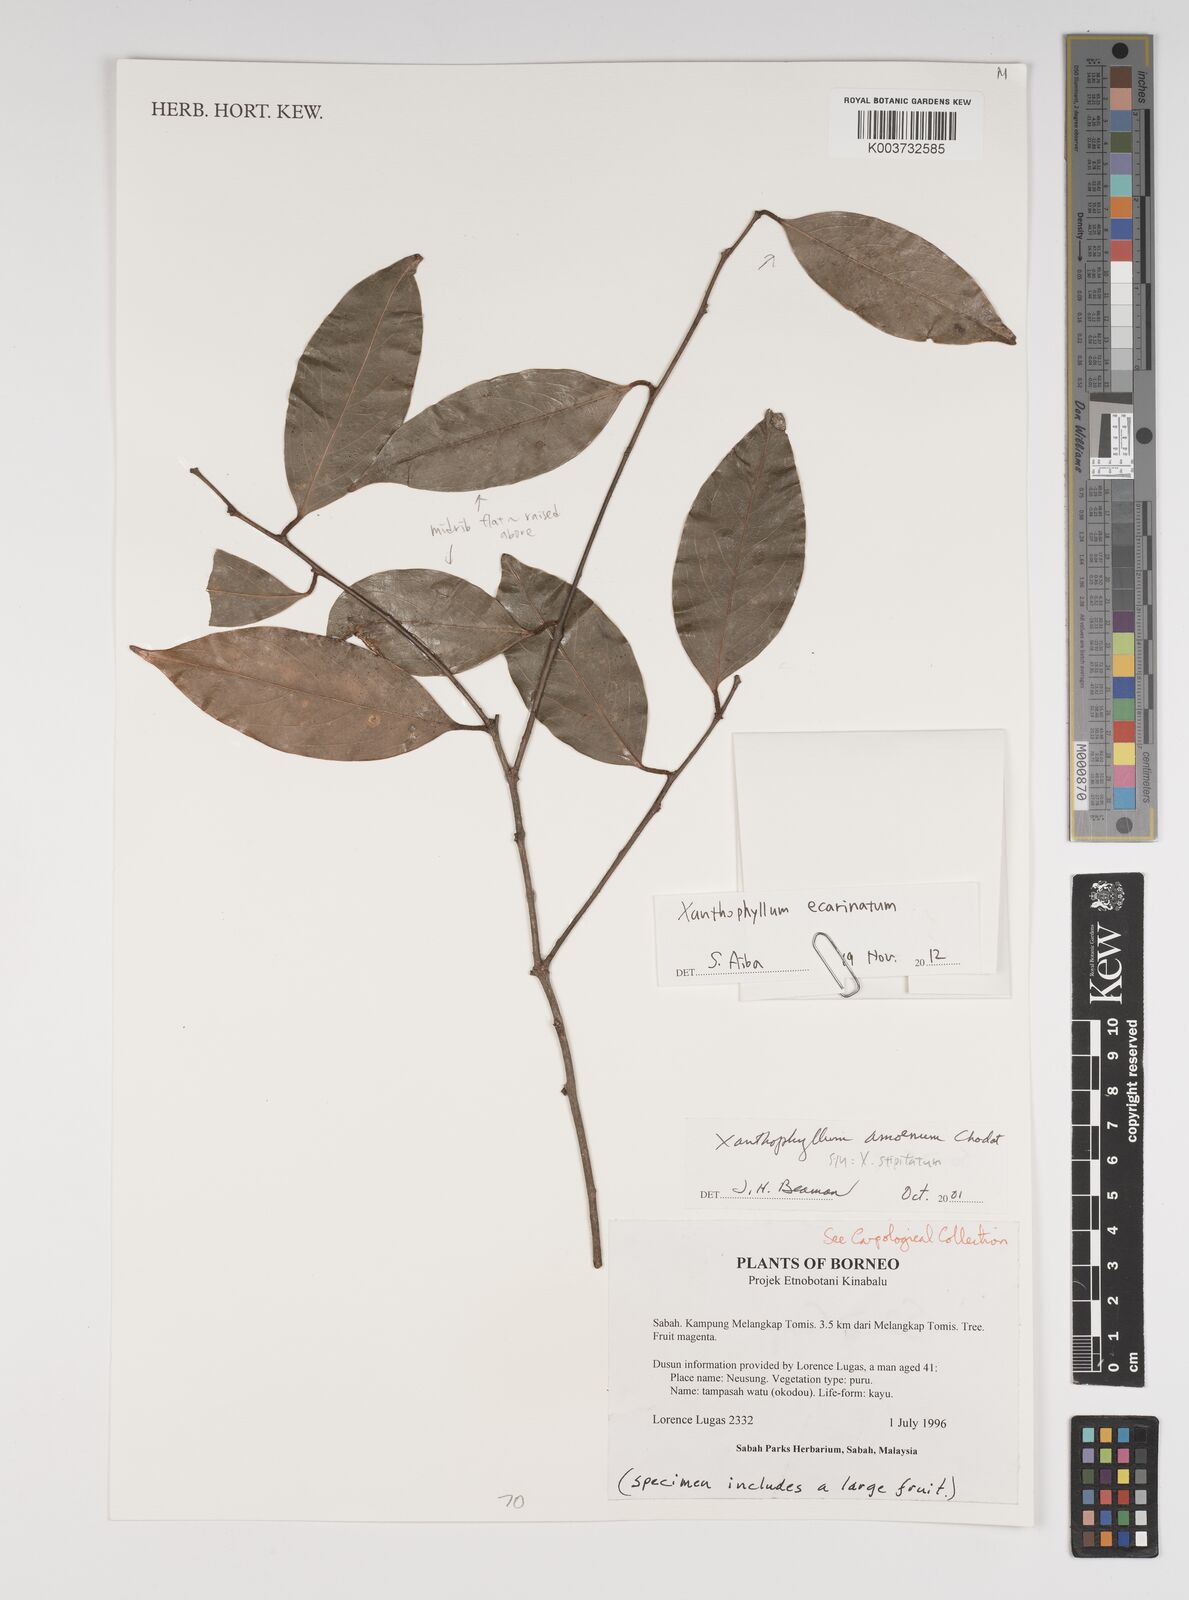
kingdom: Plantae
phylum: Tracheophyta
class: Magnoliopsida
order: Fabales
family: Polygalaceae
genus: Xanthophyllum
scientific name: Xanthophyllum ecarinatum
